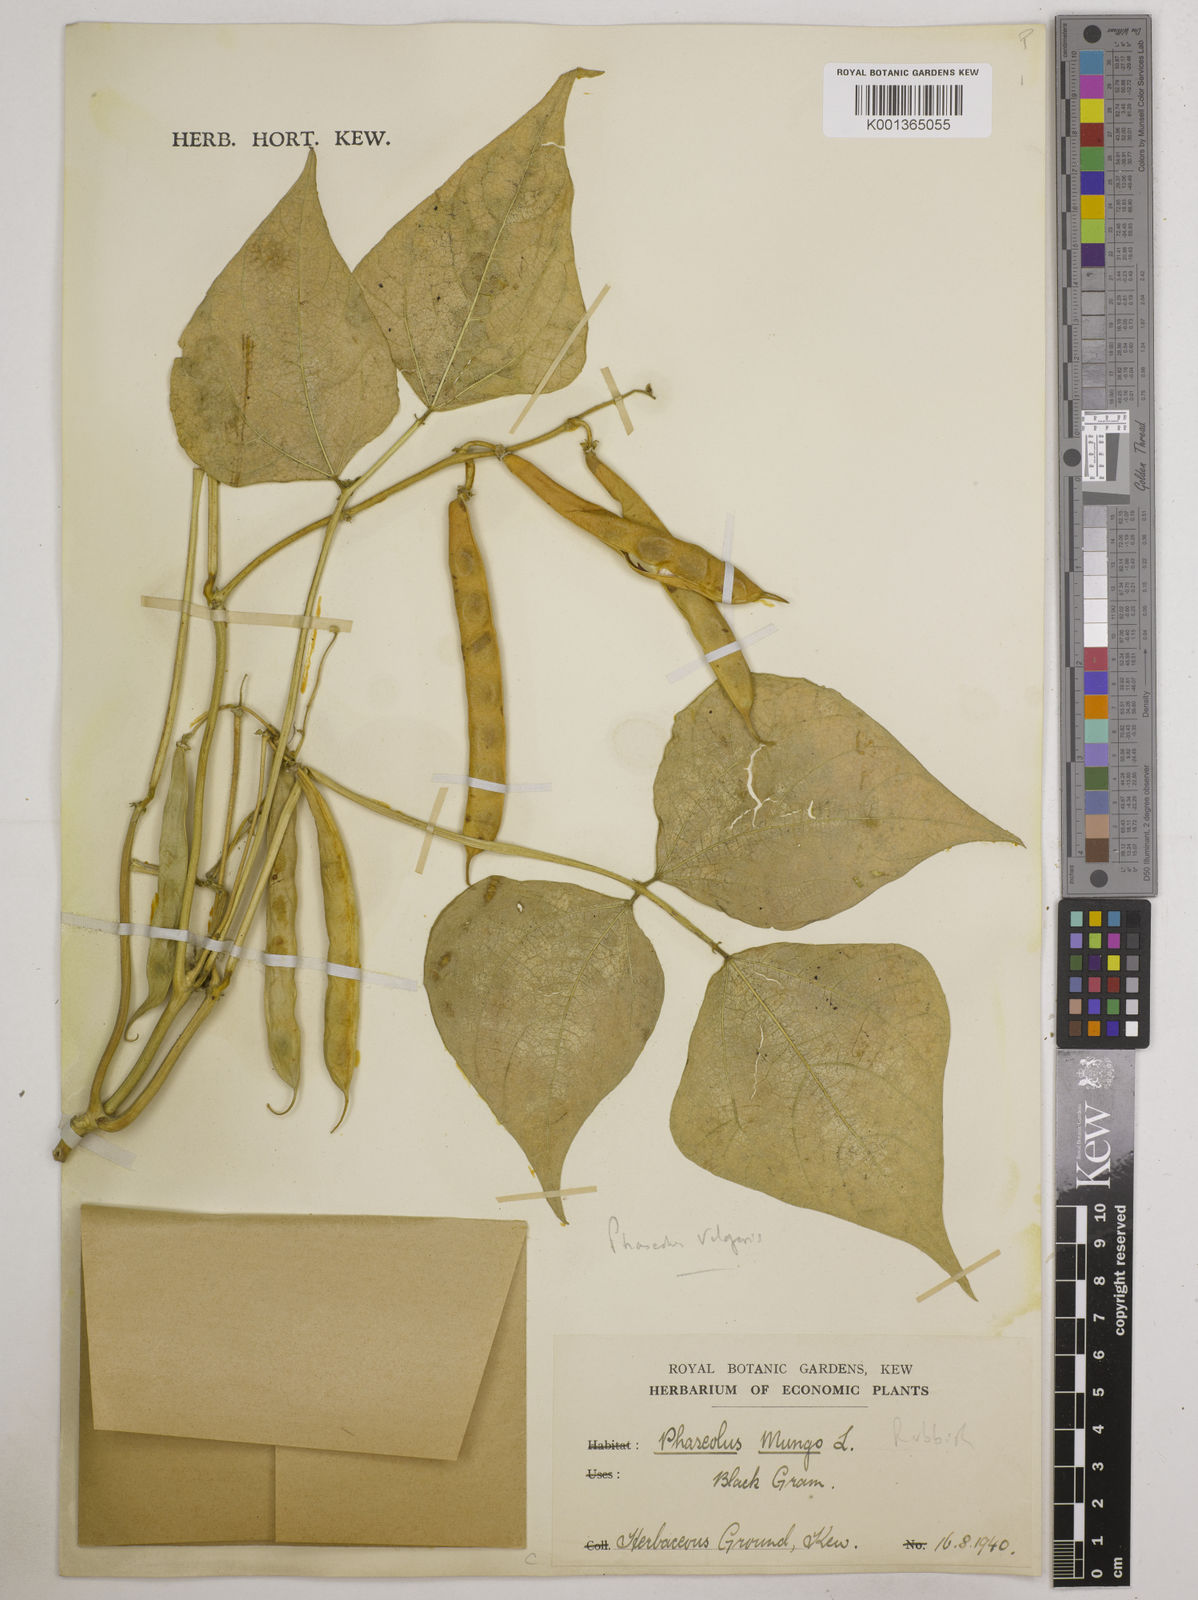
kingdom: Plantae
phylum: Tracheophyta
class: Magnoliopsida
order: Fabales
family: Fabaceae
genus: Vigna
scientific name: Vigna mungo
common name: Black gram
